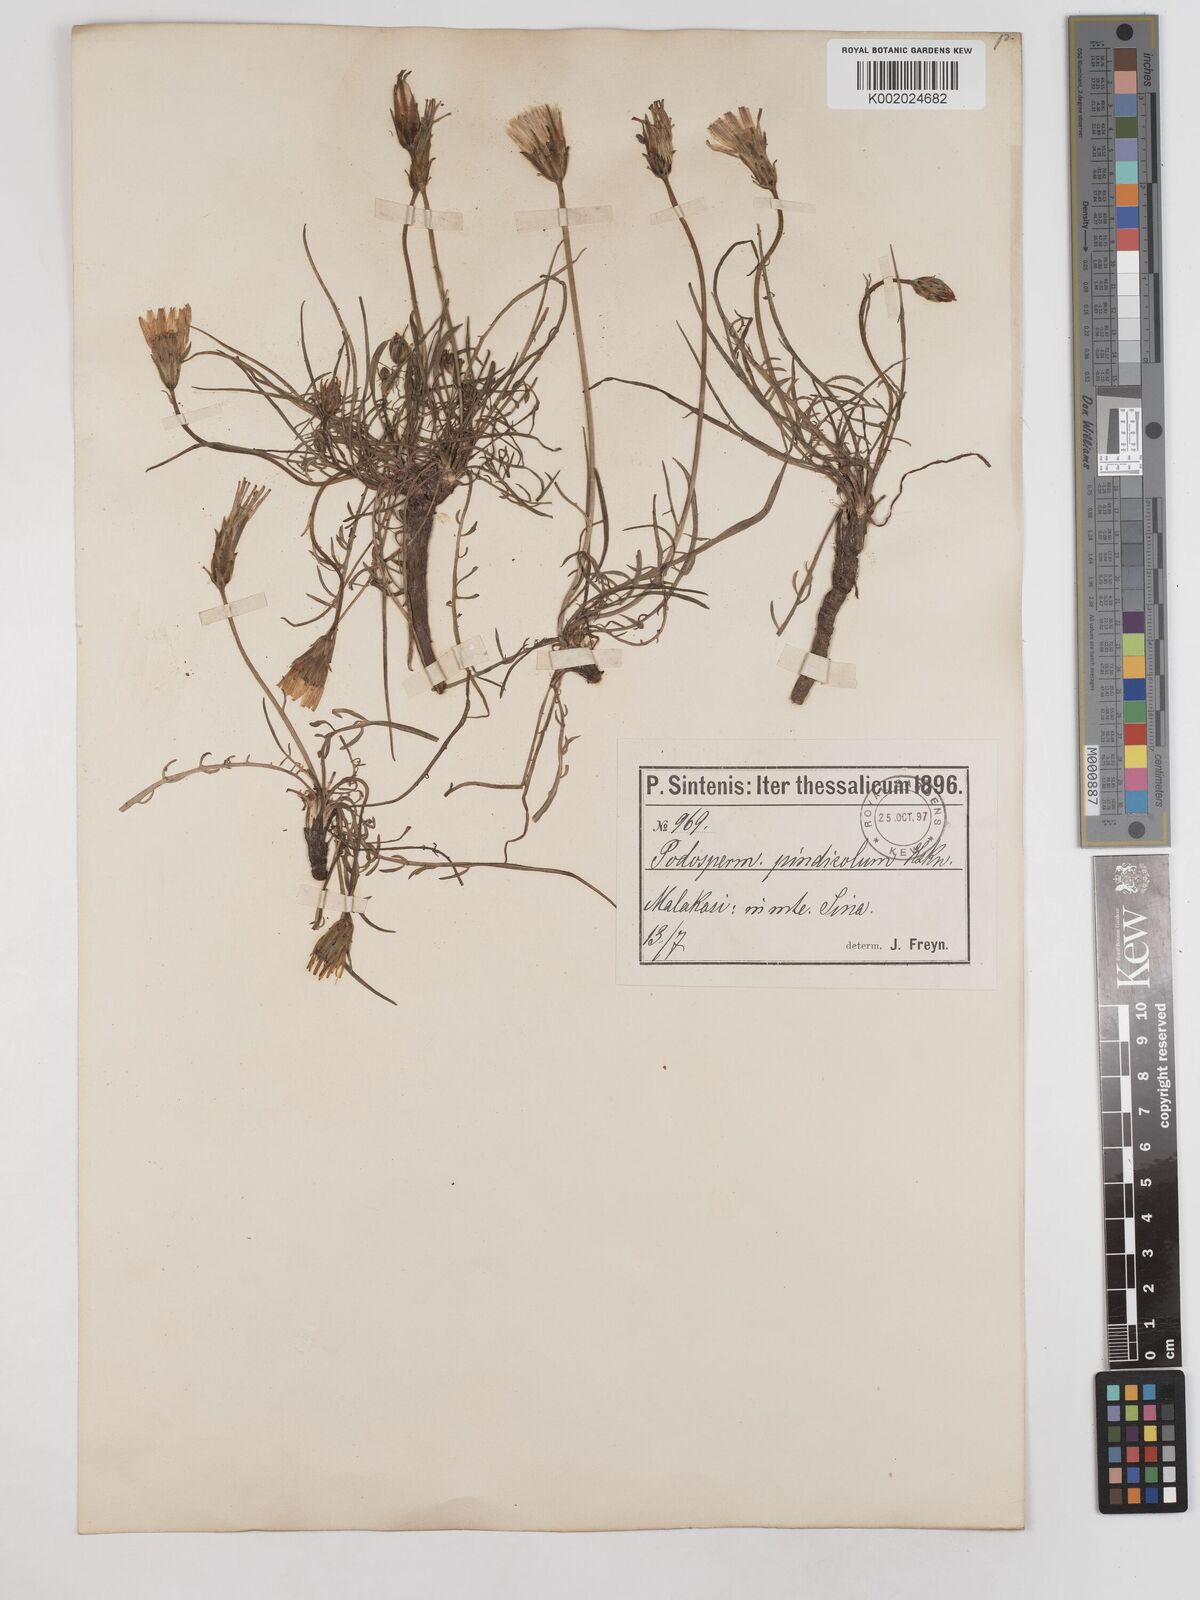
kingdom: Plantae
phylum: Tracheophyta
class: Magnoliopsida
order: Asterales
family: Asteraceae
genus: Scorzonera
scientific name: Scorzonera
